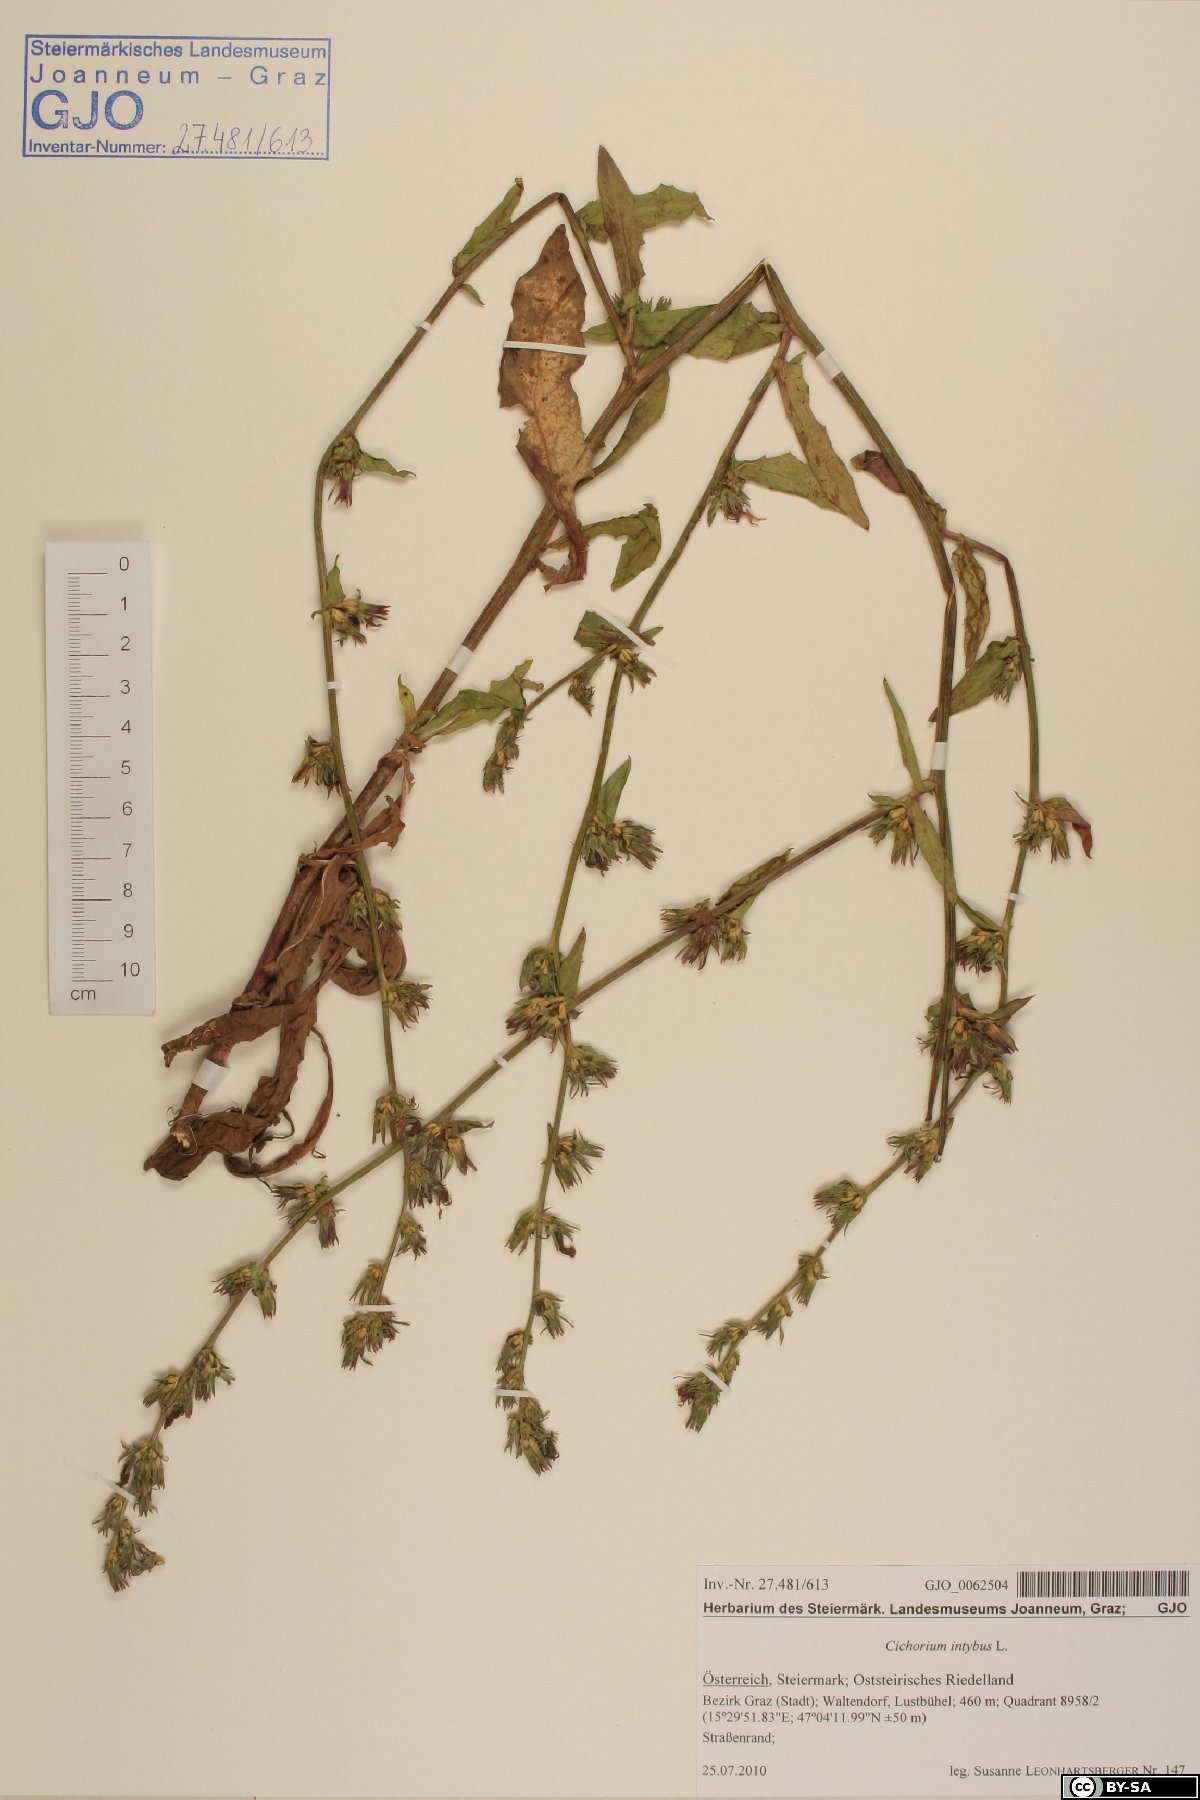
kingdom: Plantae
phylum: Tracheophyta
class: Magnoliopsida
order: Asterales
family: Asteraceae
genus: Cichorium
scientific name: Cichorium intybus
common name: Chicory
